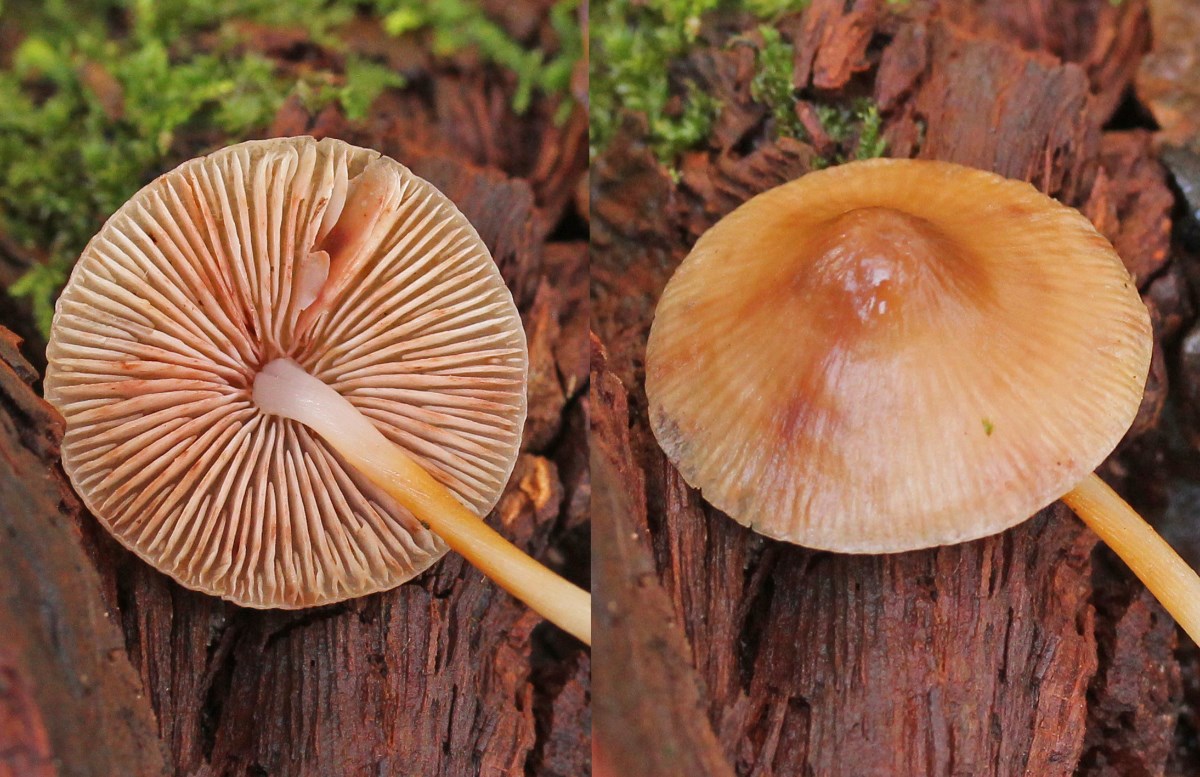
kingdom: Fungi
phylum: Basidiomycota
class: Agaricomycetes
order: Agaricales
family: Mycenaceae
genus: Mycena
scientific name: Mycena vitilis
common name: blankstokket huesvamp
